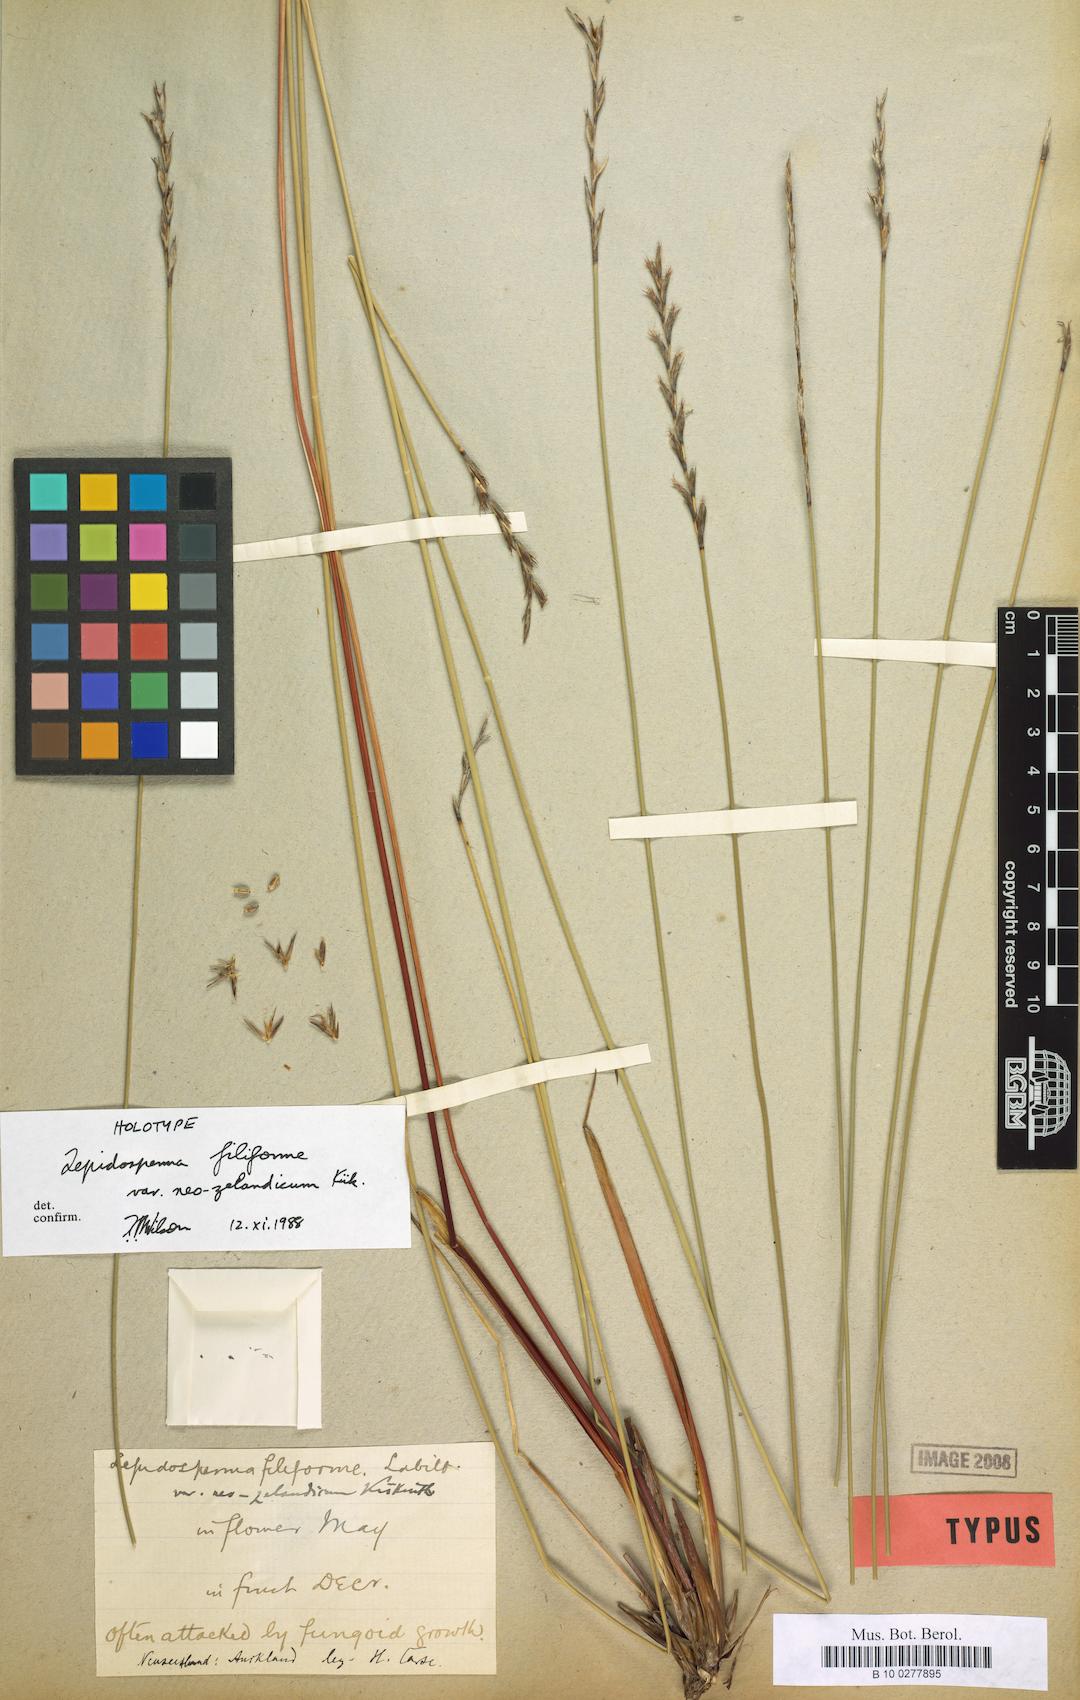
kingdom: Plantae
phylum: Tracheophyta
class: Liliopsida
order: Poales
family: Cyperaceae
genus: Lepidosperma
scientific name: Lepidosperma filiforme
